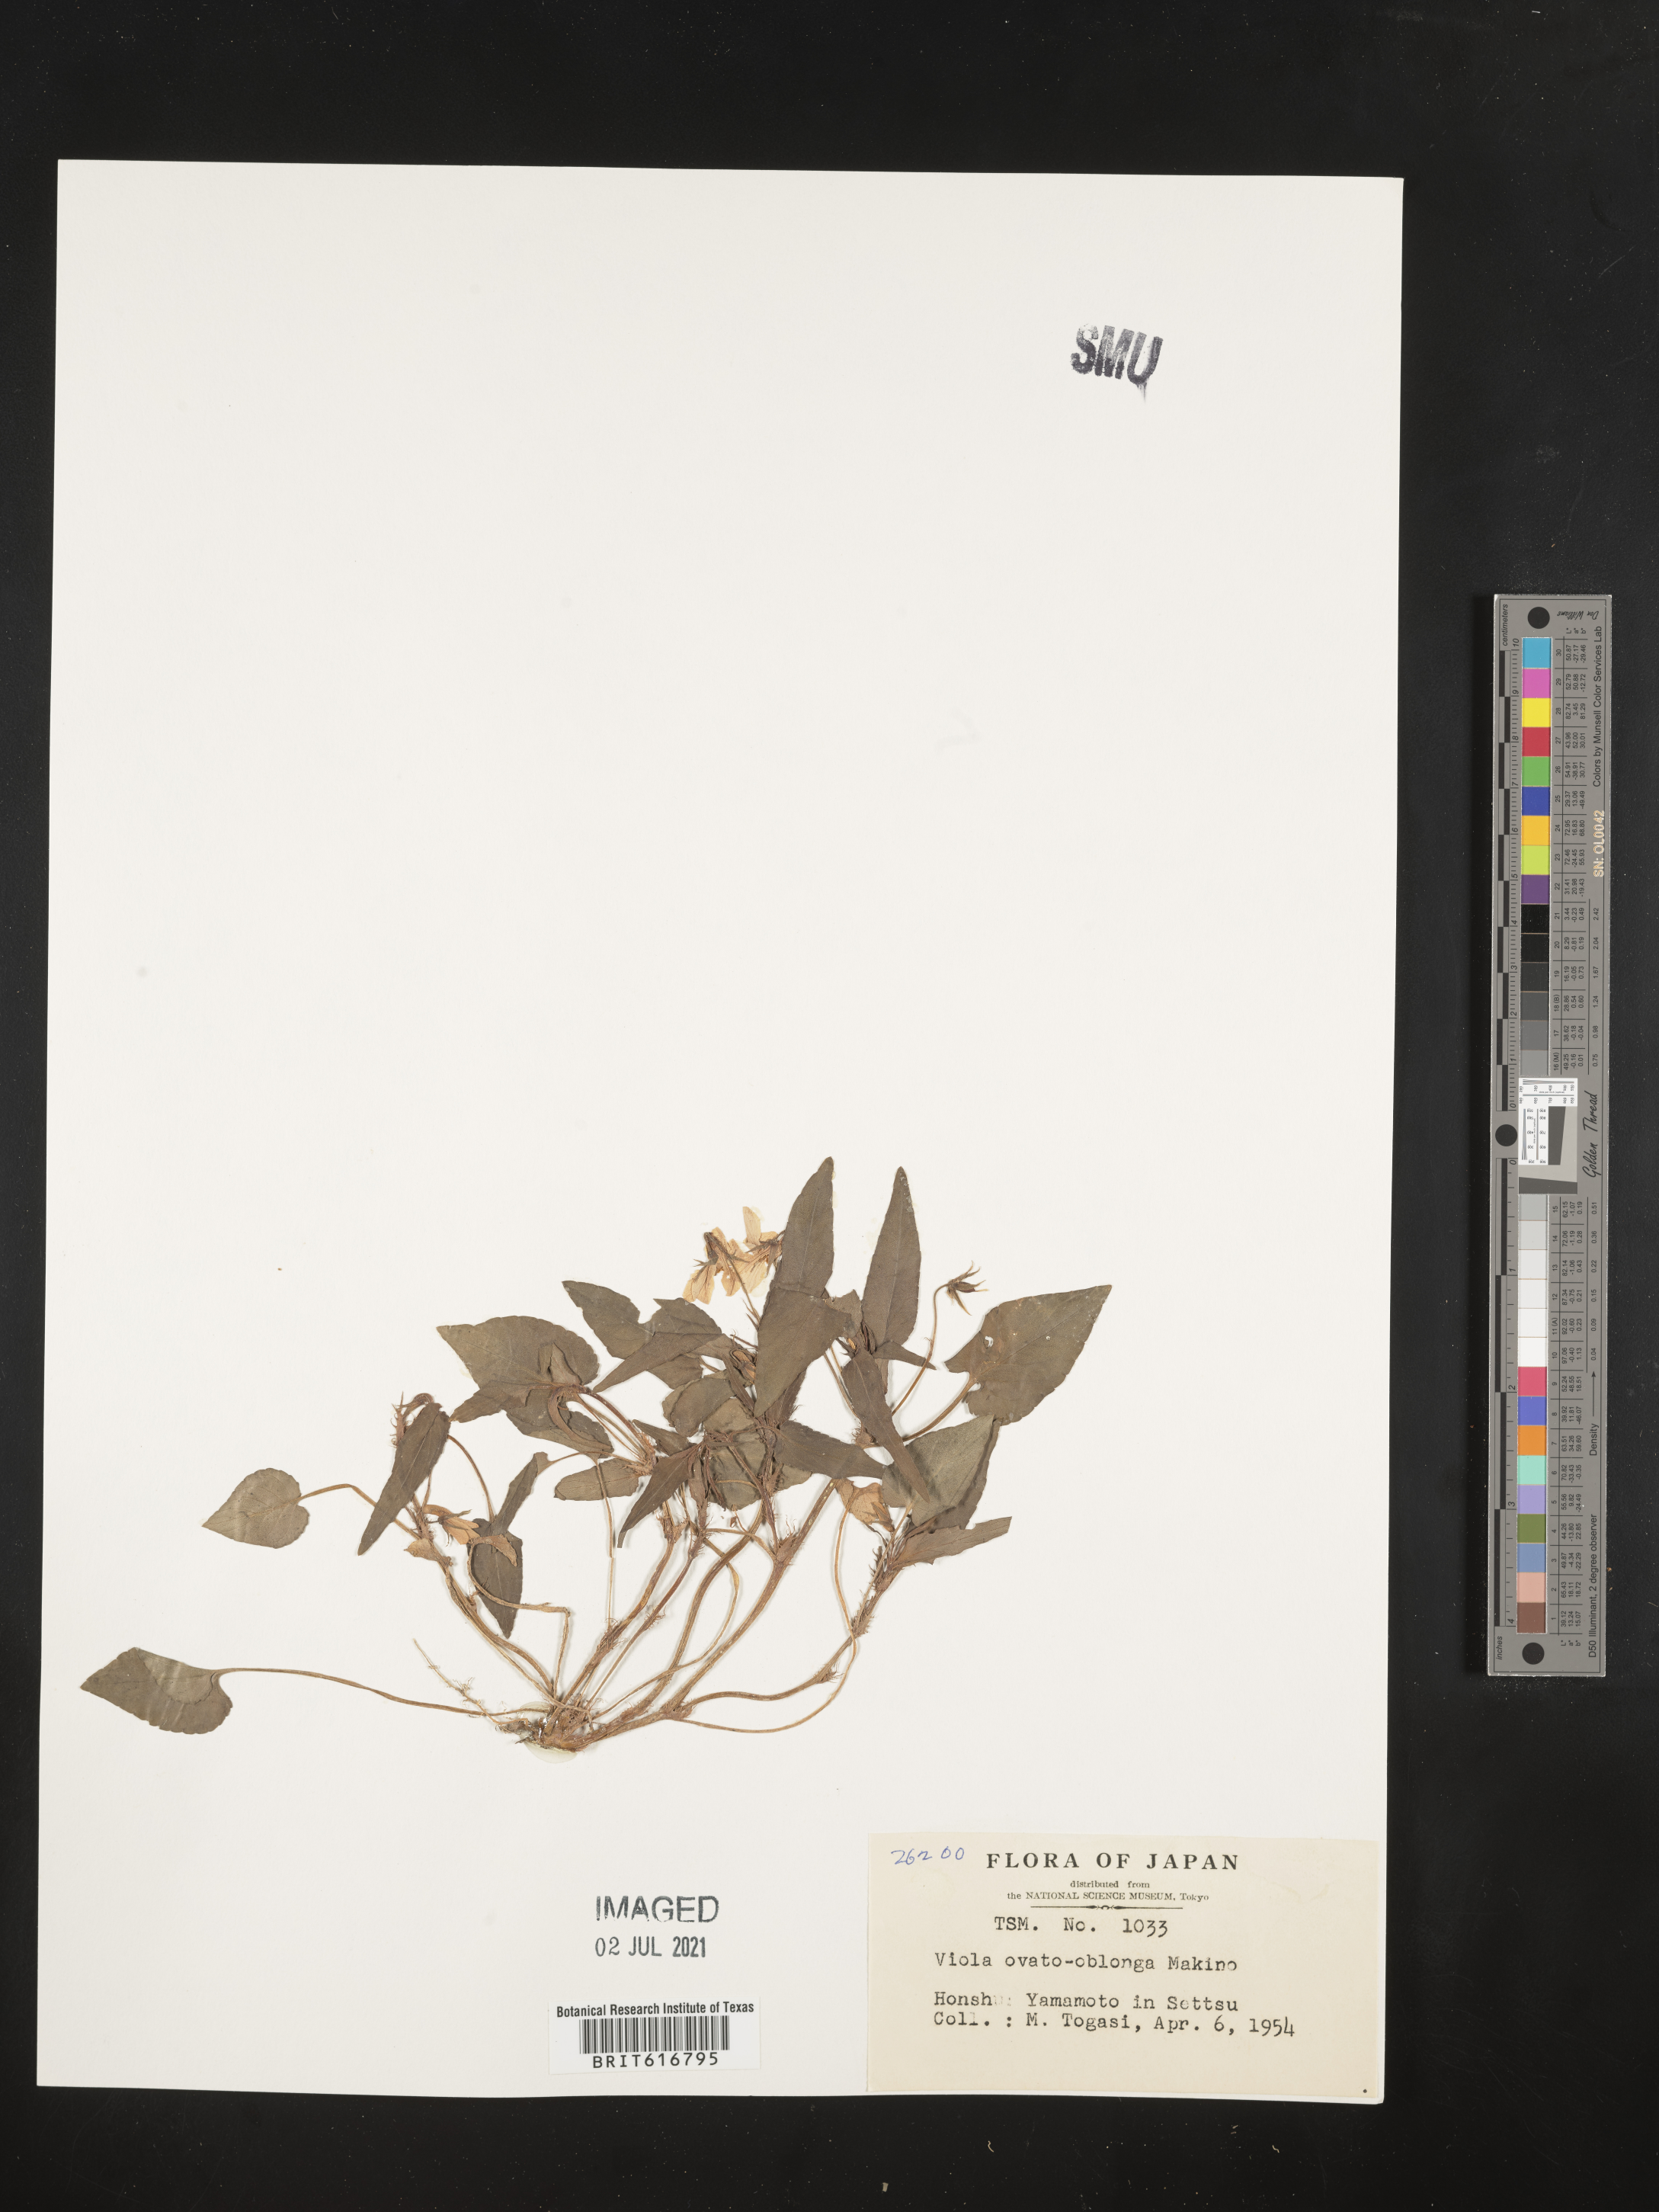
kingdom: Plantae
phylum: Tracheophyta
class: Magnoliopsida
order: Malpighiales
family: Violaceae
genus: Viola
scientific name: Viola ovatooblonga
